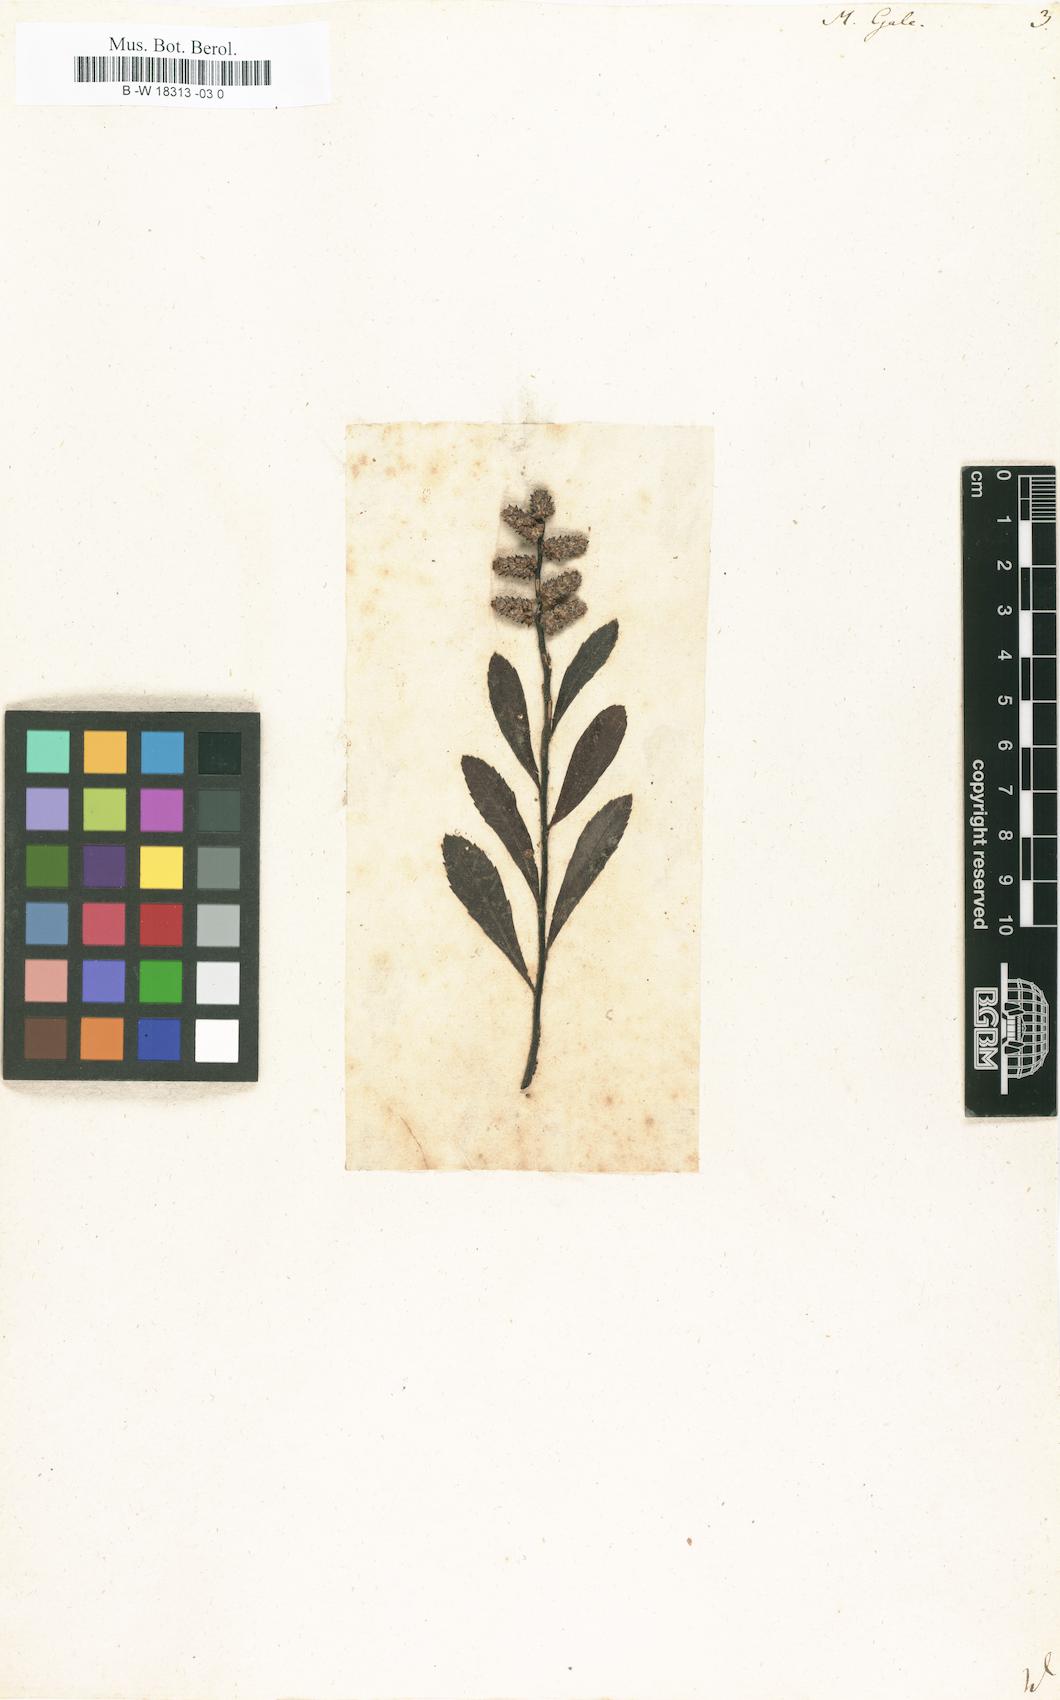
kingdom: Plantae
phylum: Tracheophyta
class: Magnoliopsida
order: Fagales
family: Myricaceae
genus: Myrica
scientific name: Myrica gale
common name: Sweet gale
